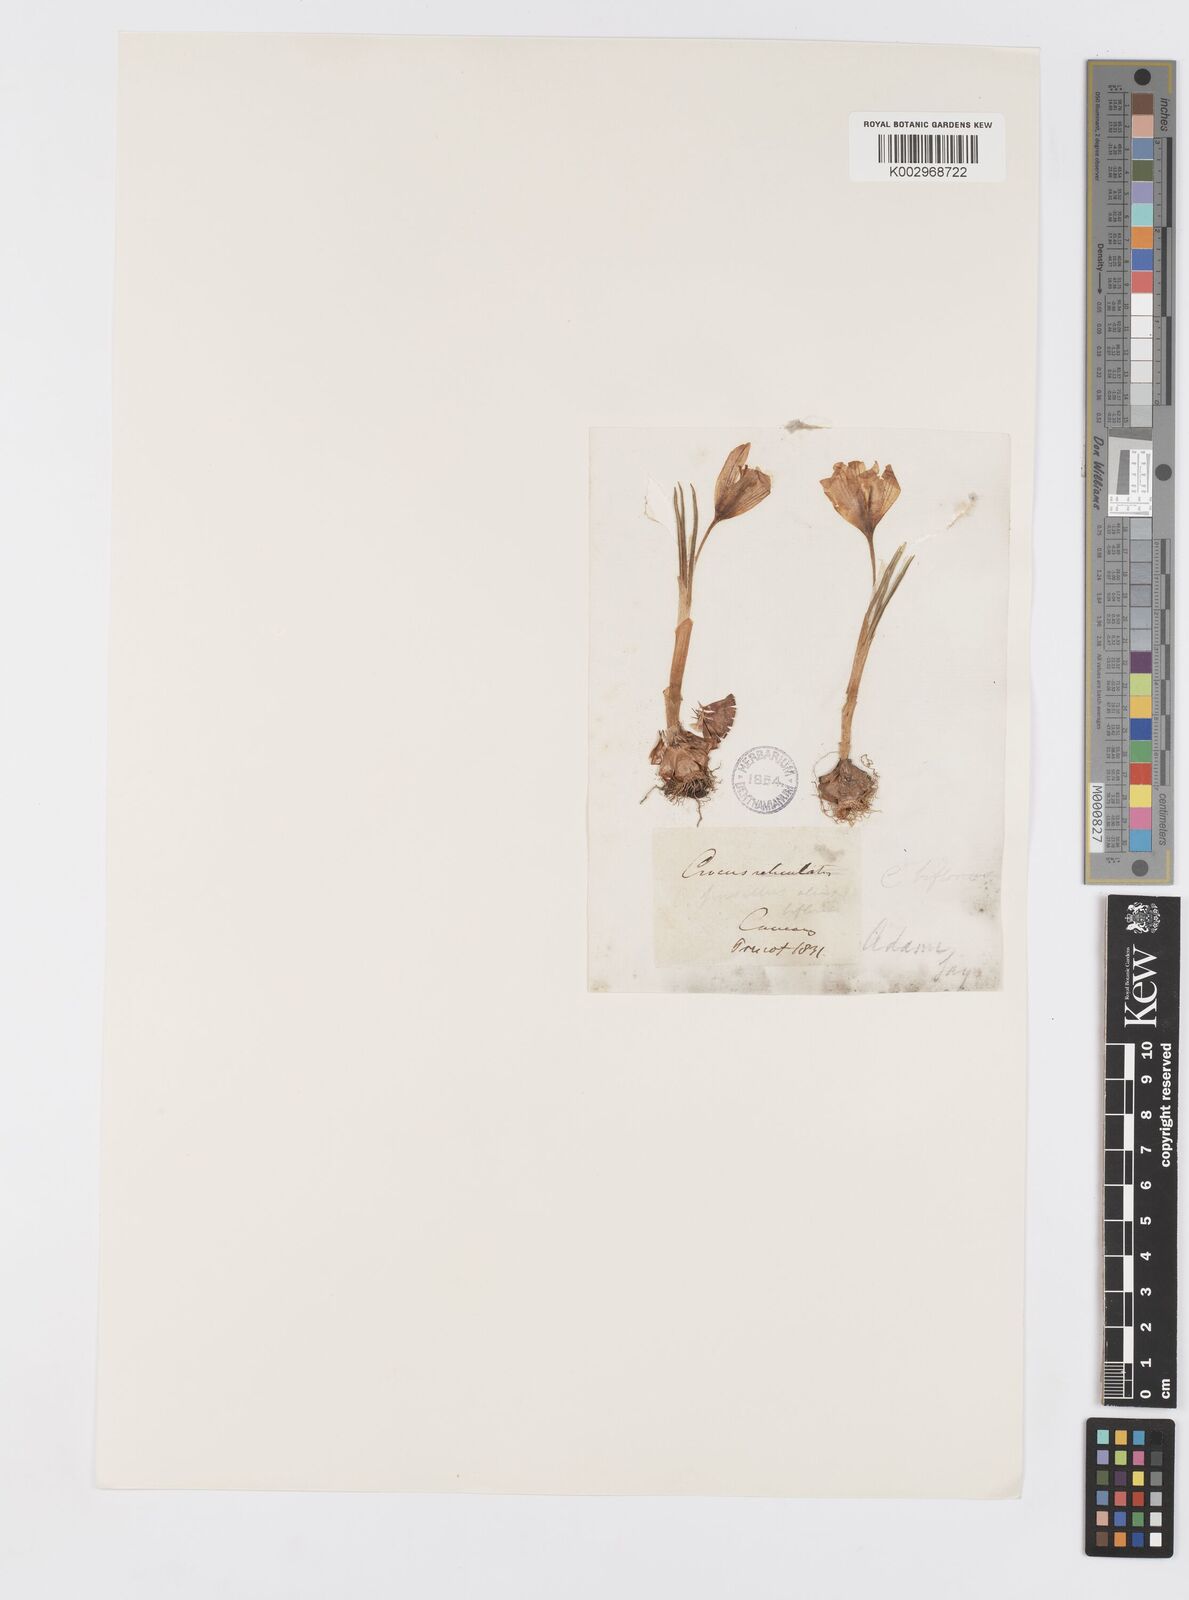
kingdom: Plantae
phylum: Tracheophyta
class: Liliopsida
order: Asparagales
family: Iridaceae
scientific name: Iridaceae
